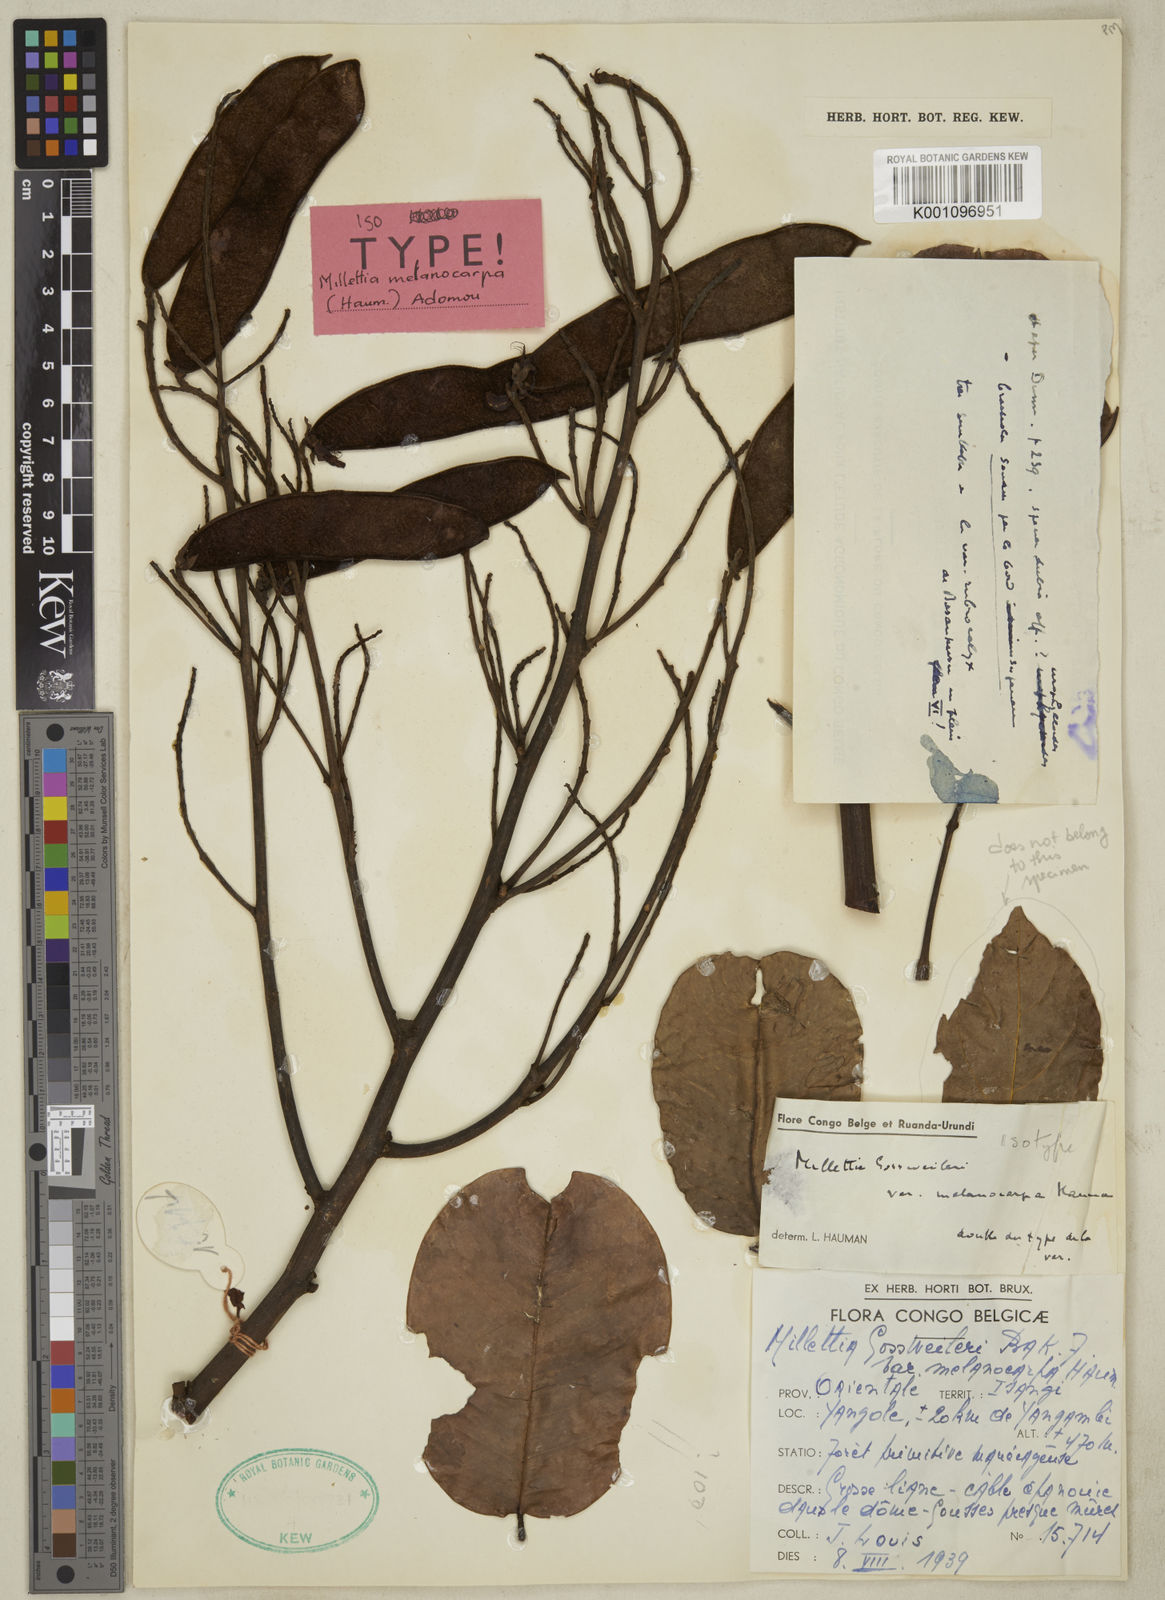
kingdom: Plantae
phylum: Tracheophyta
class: Magnoliopsida
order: Fabales
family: Fabaceae
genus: Millettia
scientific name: Millettia melanocarpa
